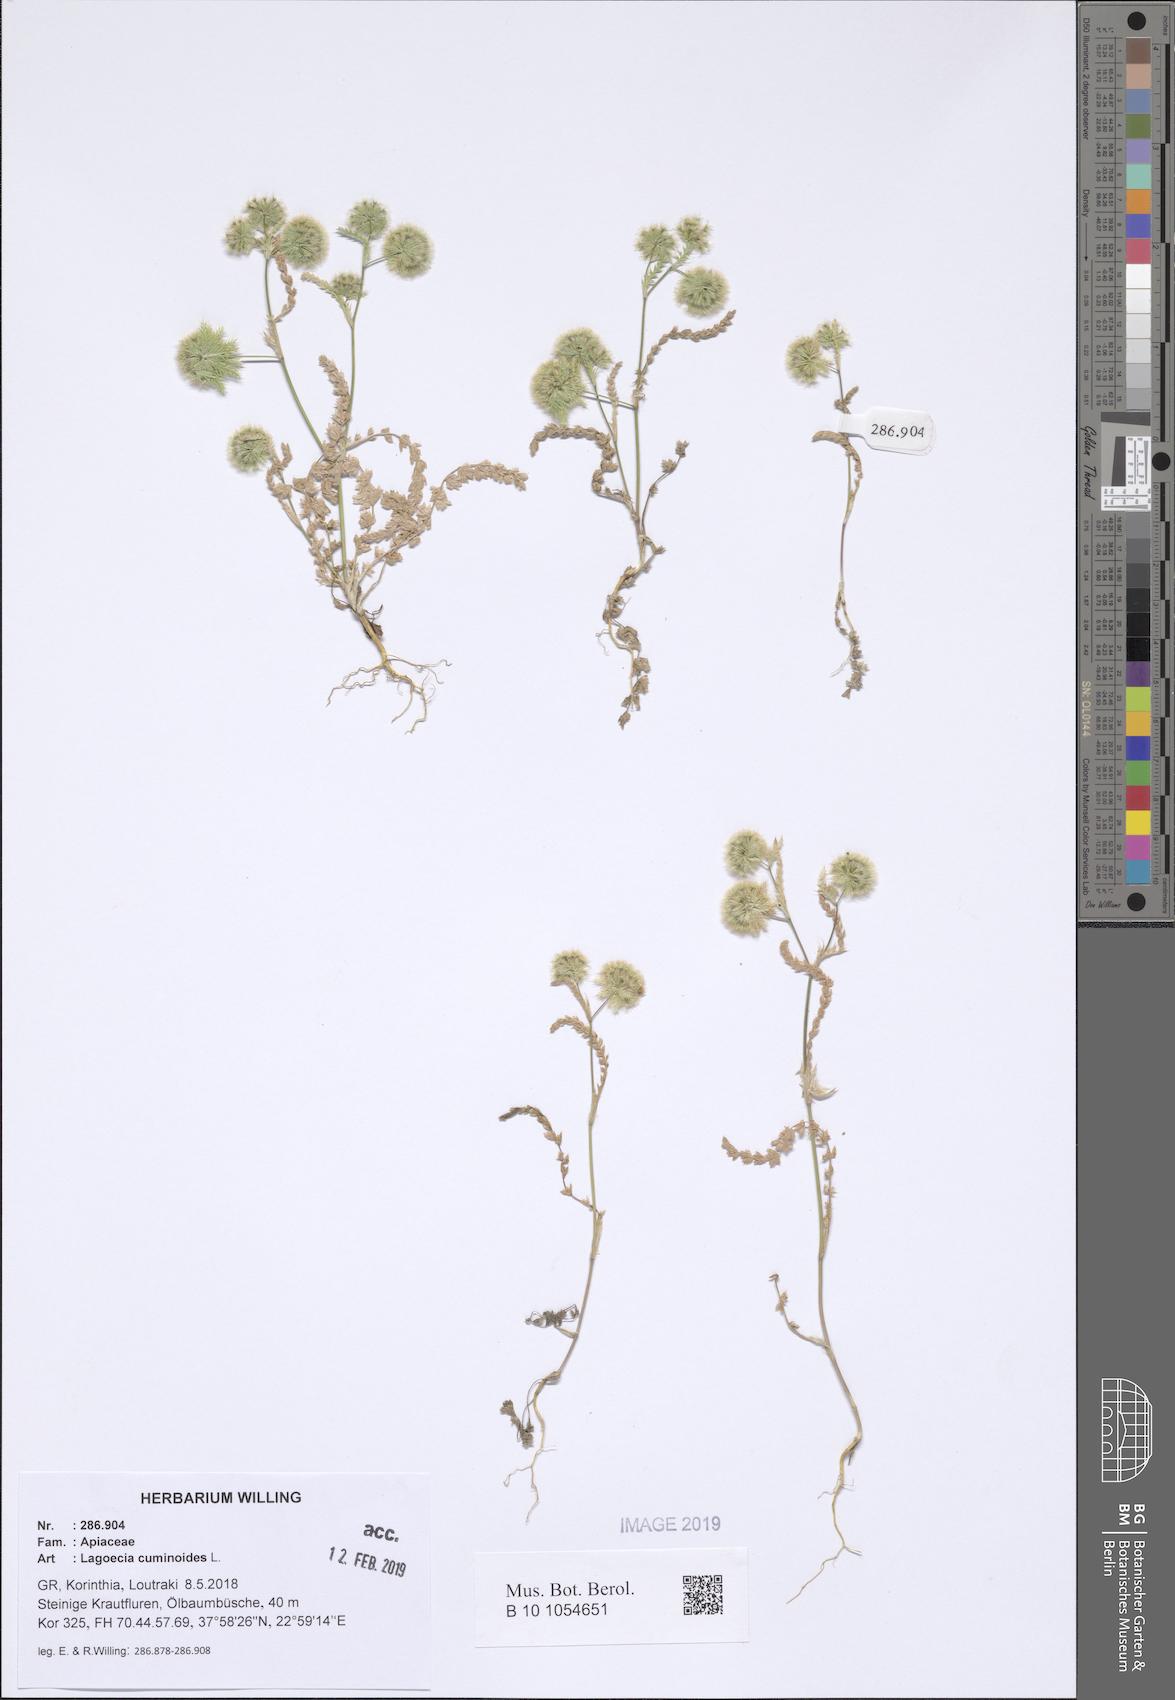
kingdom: Plantae
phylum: Tracheophyta
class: Magnoliopsida
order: Apiales
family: Apiaceae
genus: Lagoecia
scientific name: Lagoecia cuminoides
